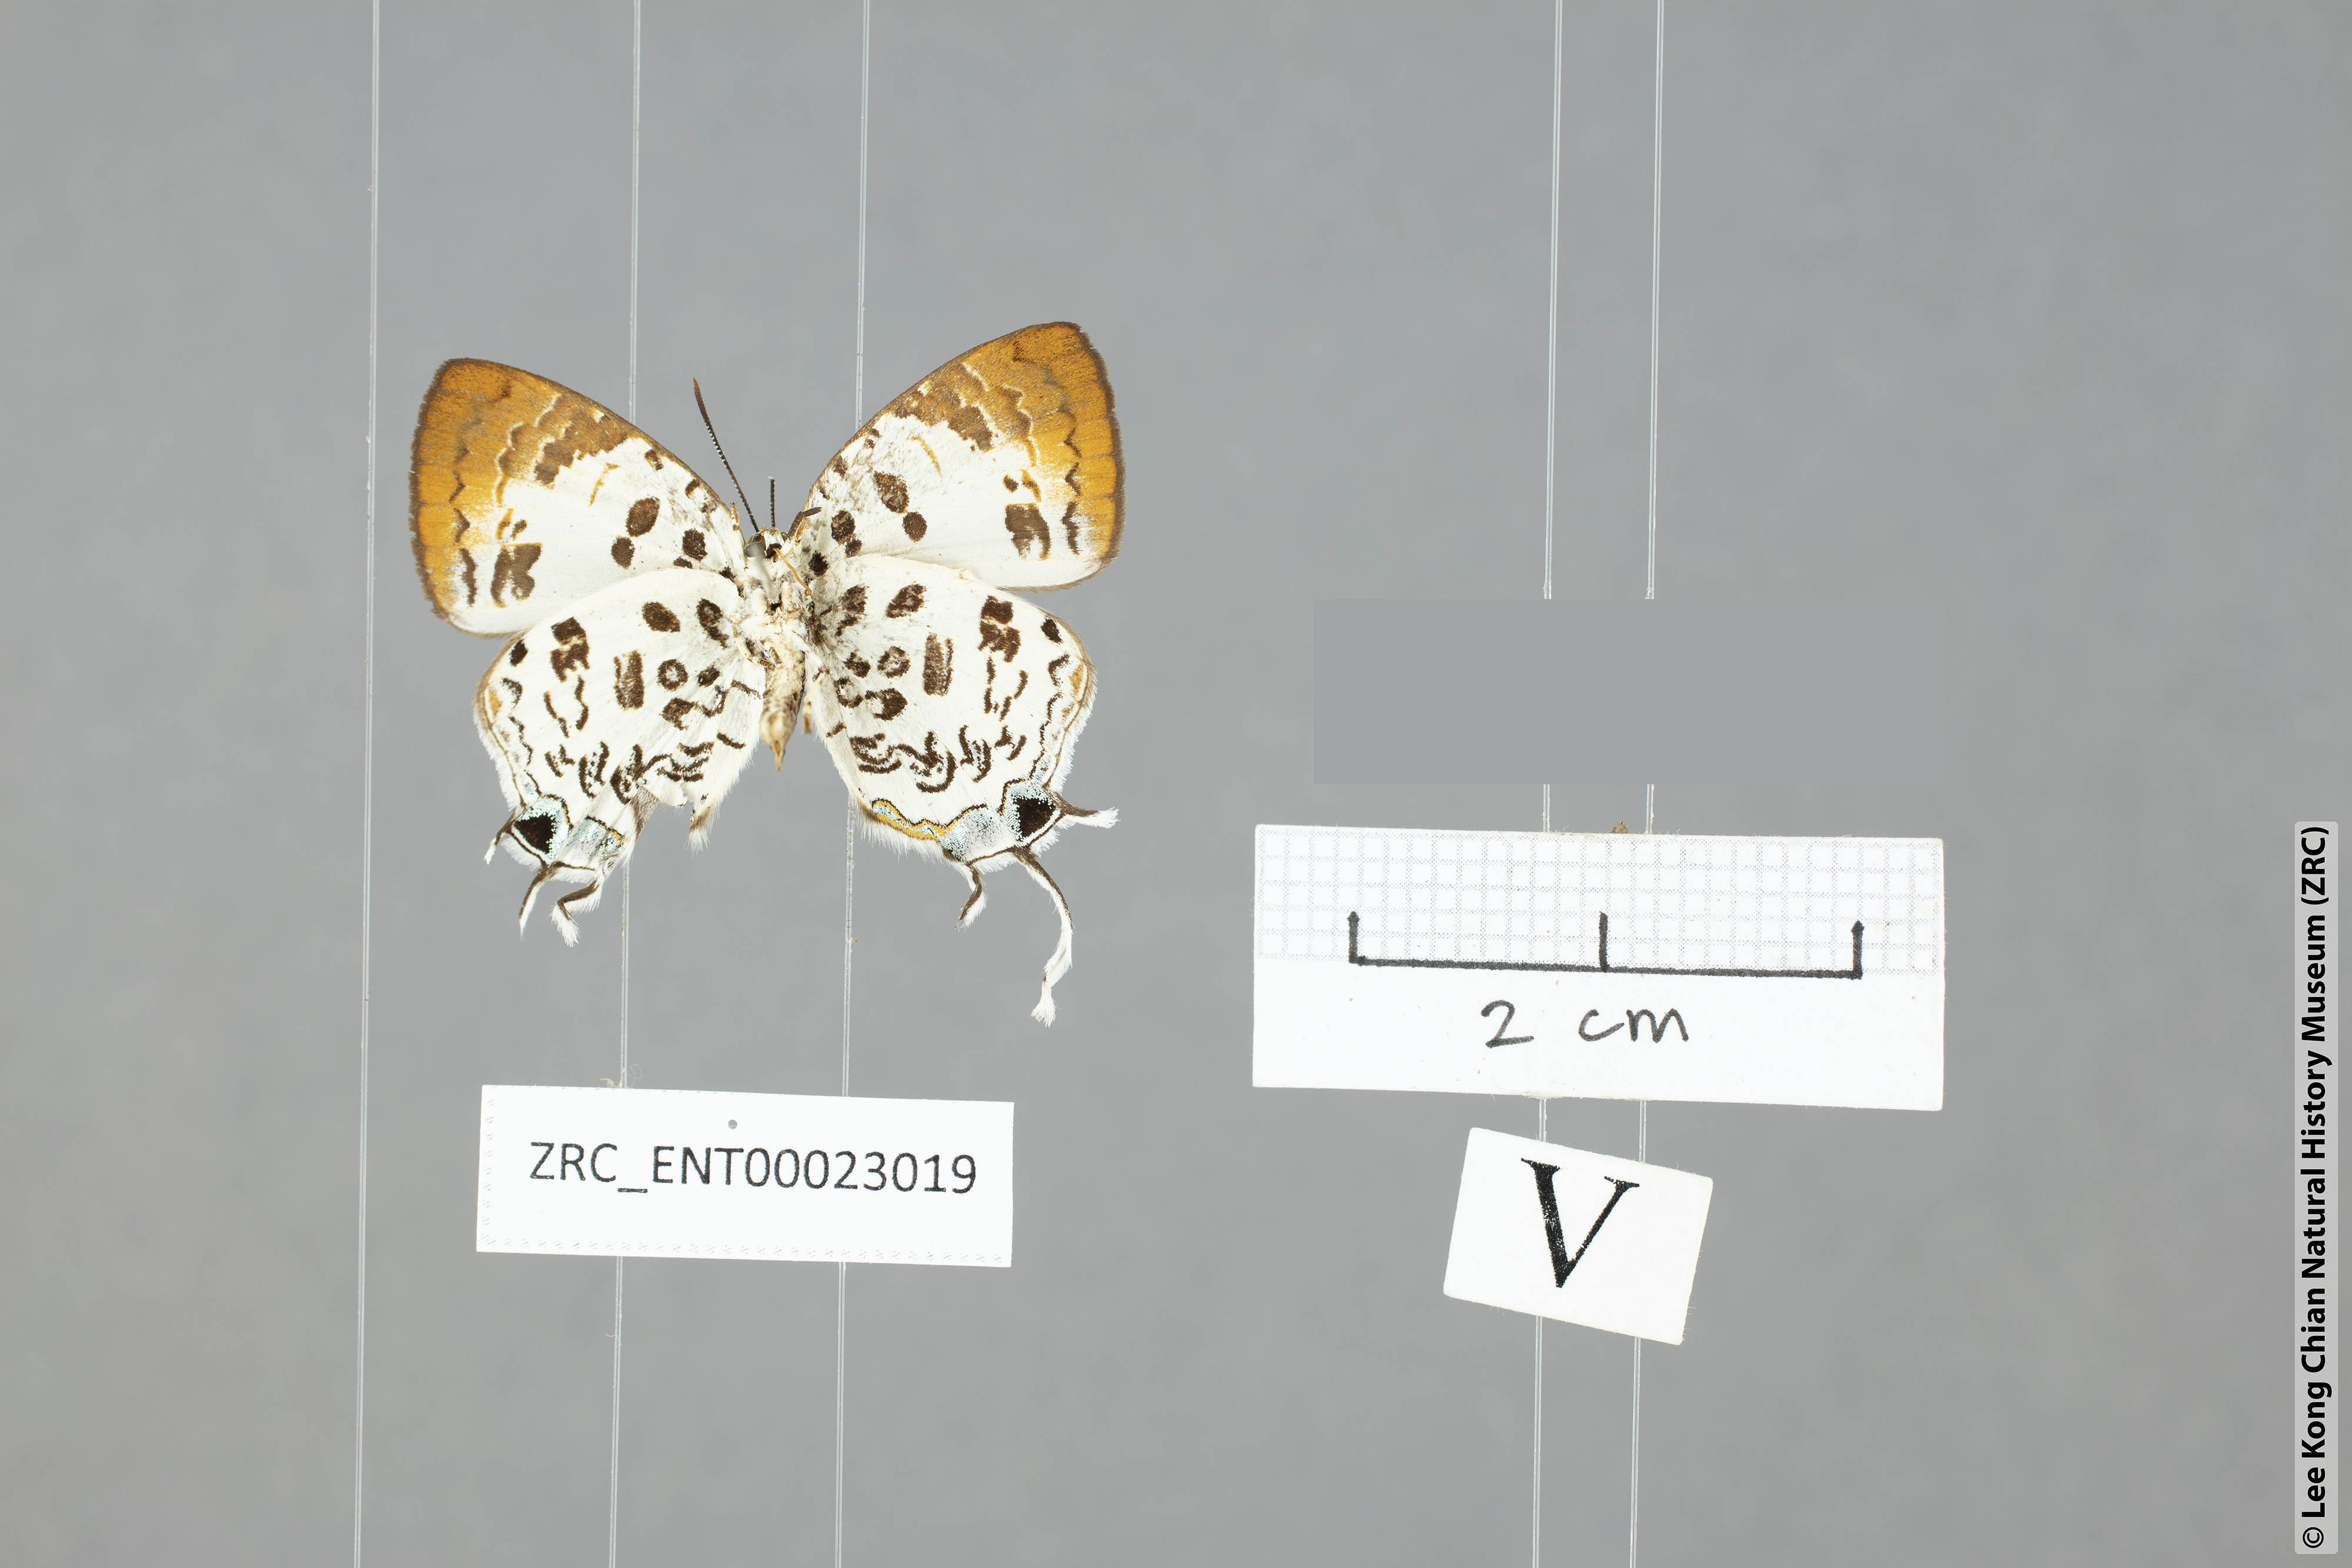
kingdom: Animalia
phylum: Arthropoda
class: Insecta
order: Lepidoptera
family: Lycaenidae
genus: Drupadia
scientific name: Drupadia scaeva
